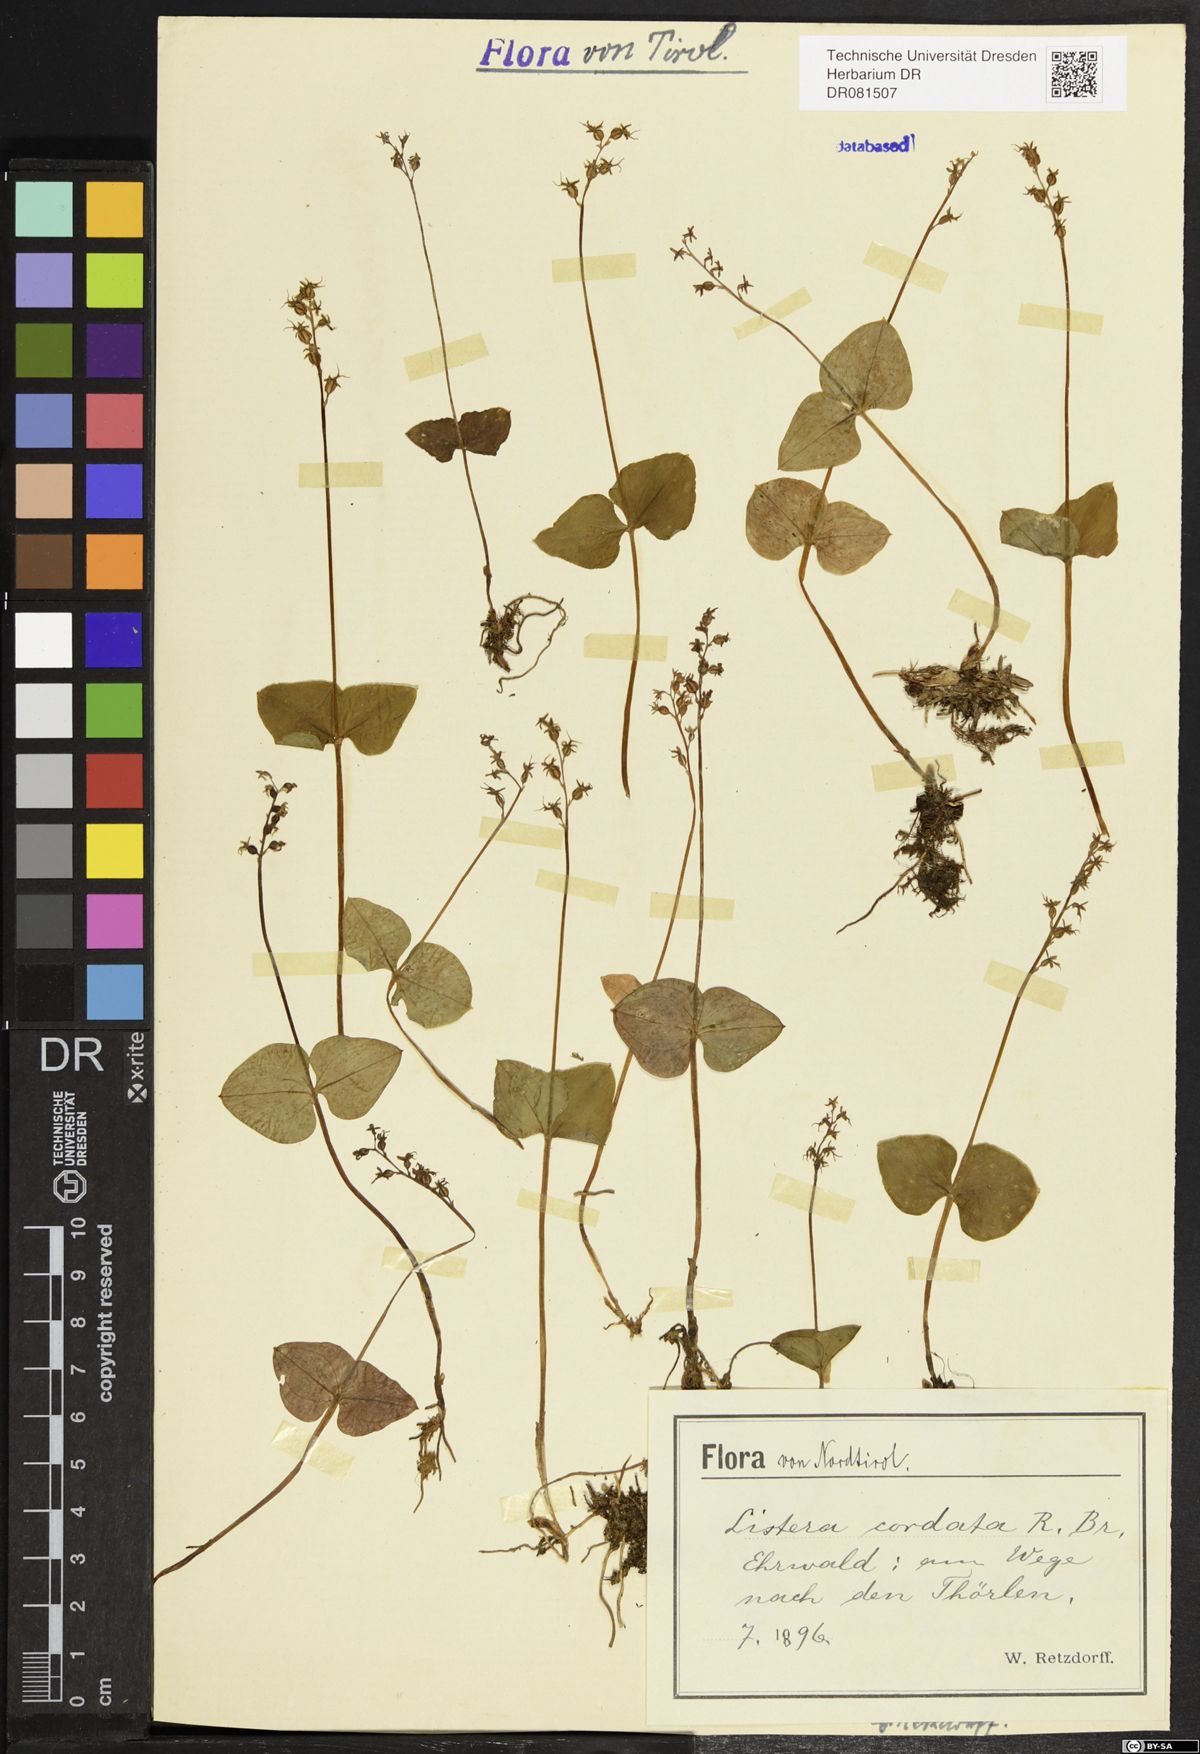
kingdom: Plantae
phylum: Tracheophyta
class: Liliopsida
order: Asparagales
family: Orchidaceae
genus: Neottia
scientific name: Neottia cordata
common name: Lesser twayblade
